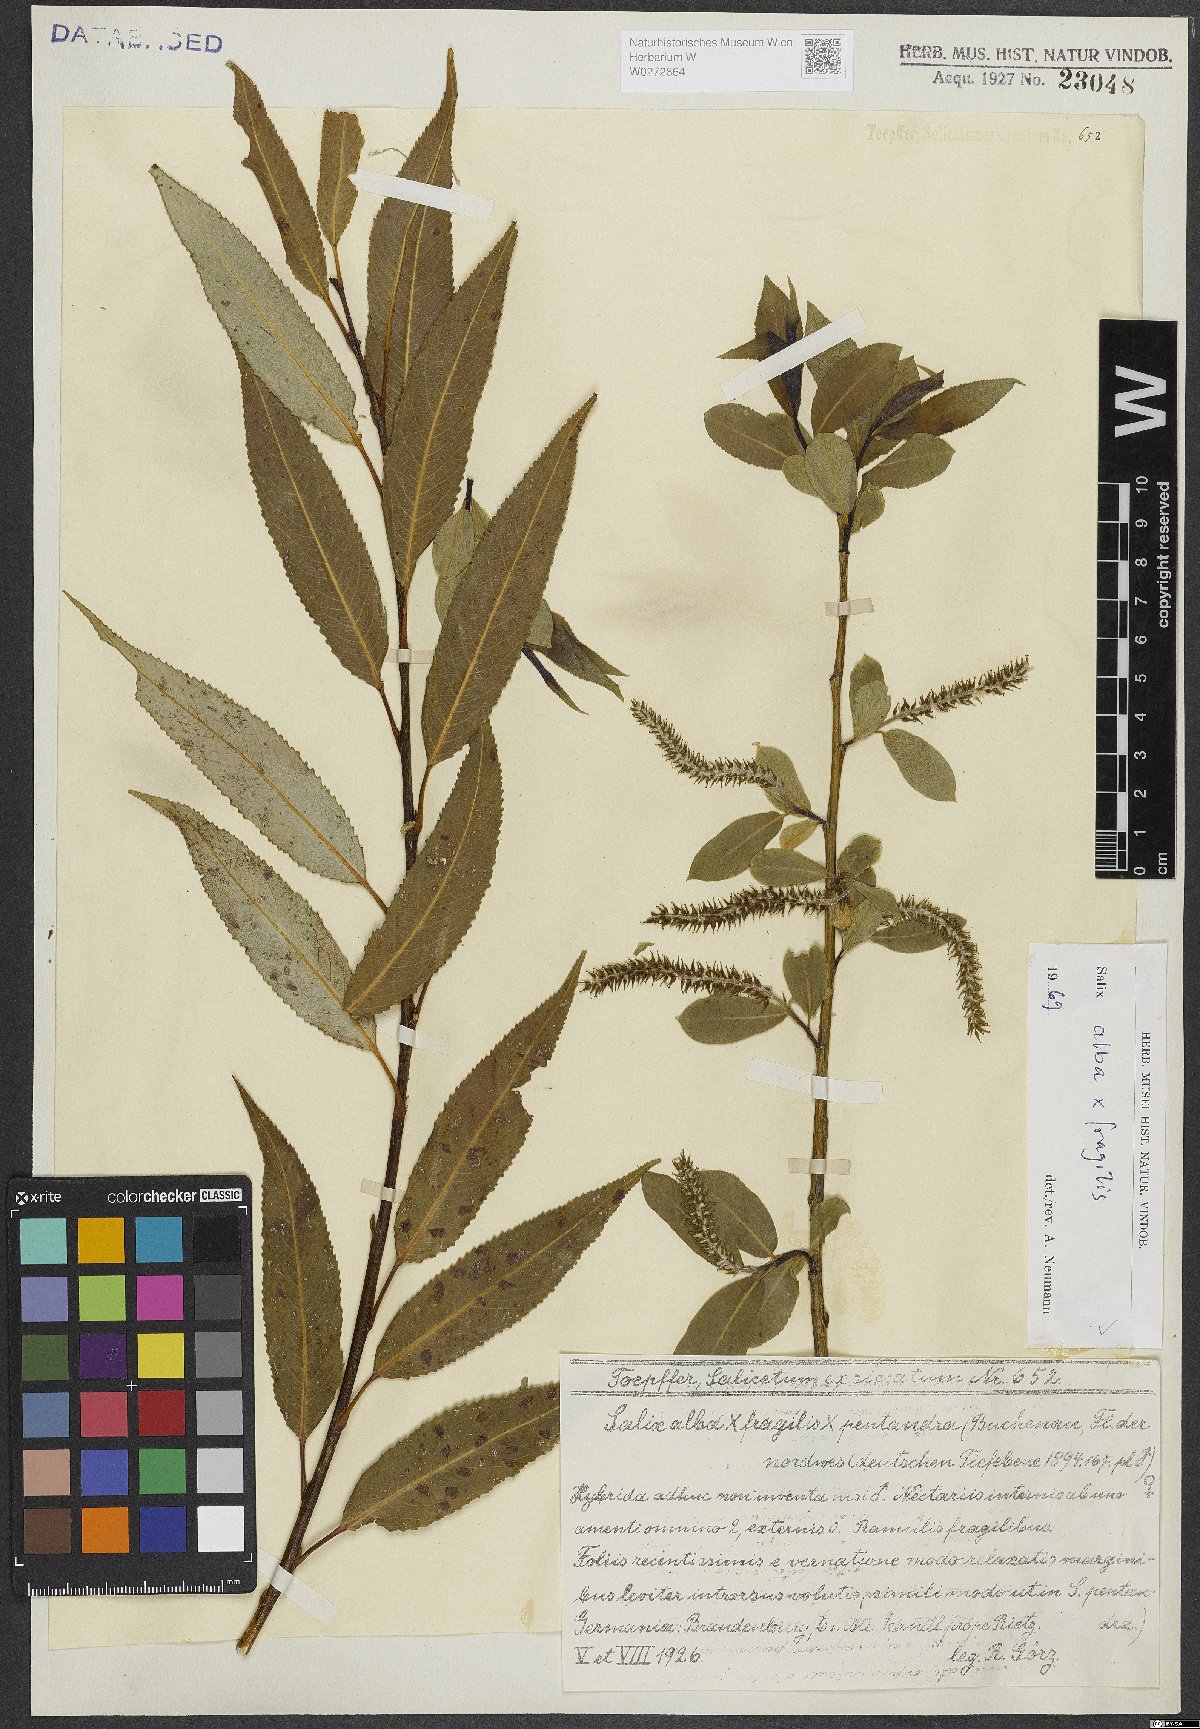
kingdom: Plantae
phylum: Tracheophyta
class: Magnoliopsida
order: Malpighiales
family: Salicaceae
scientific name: Salicaceae
